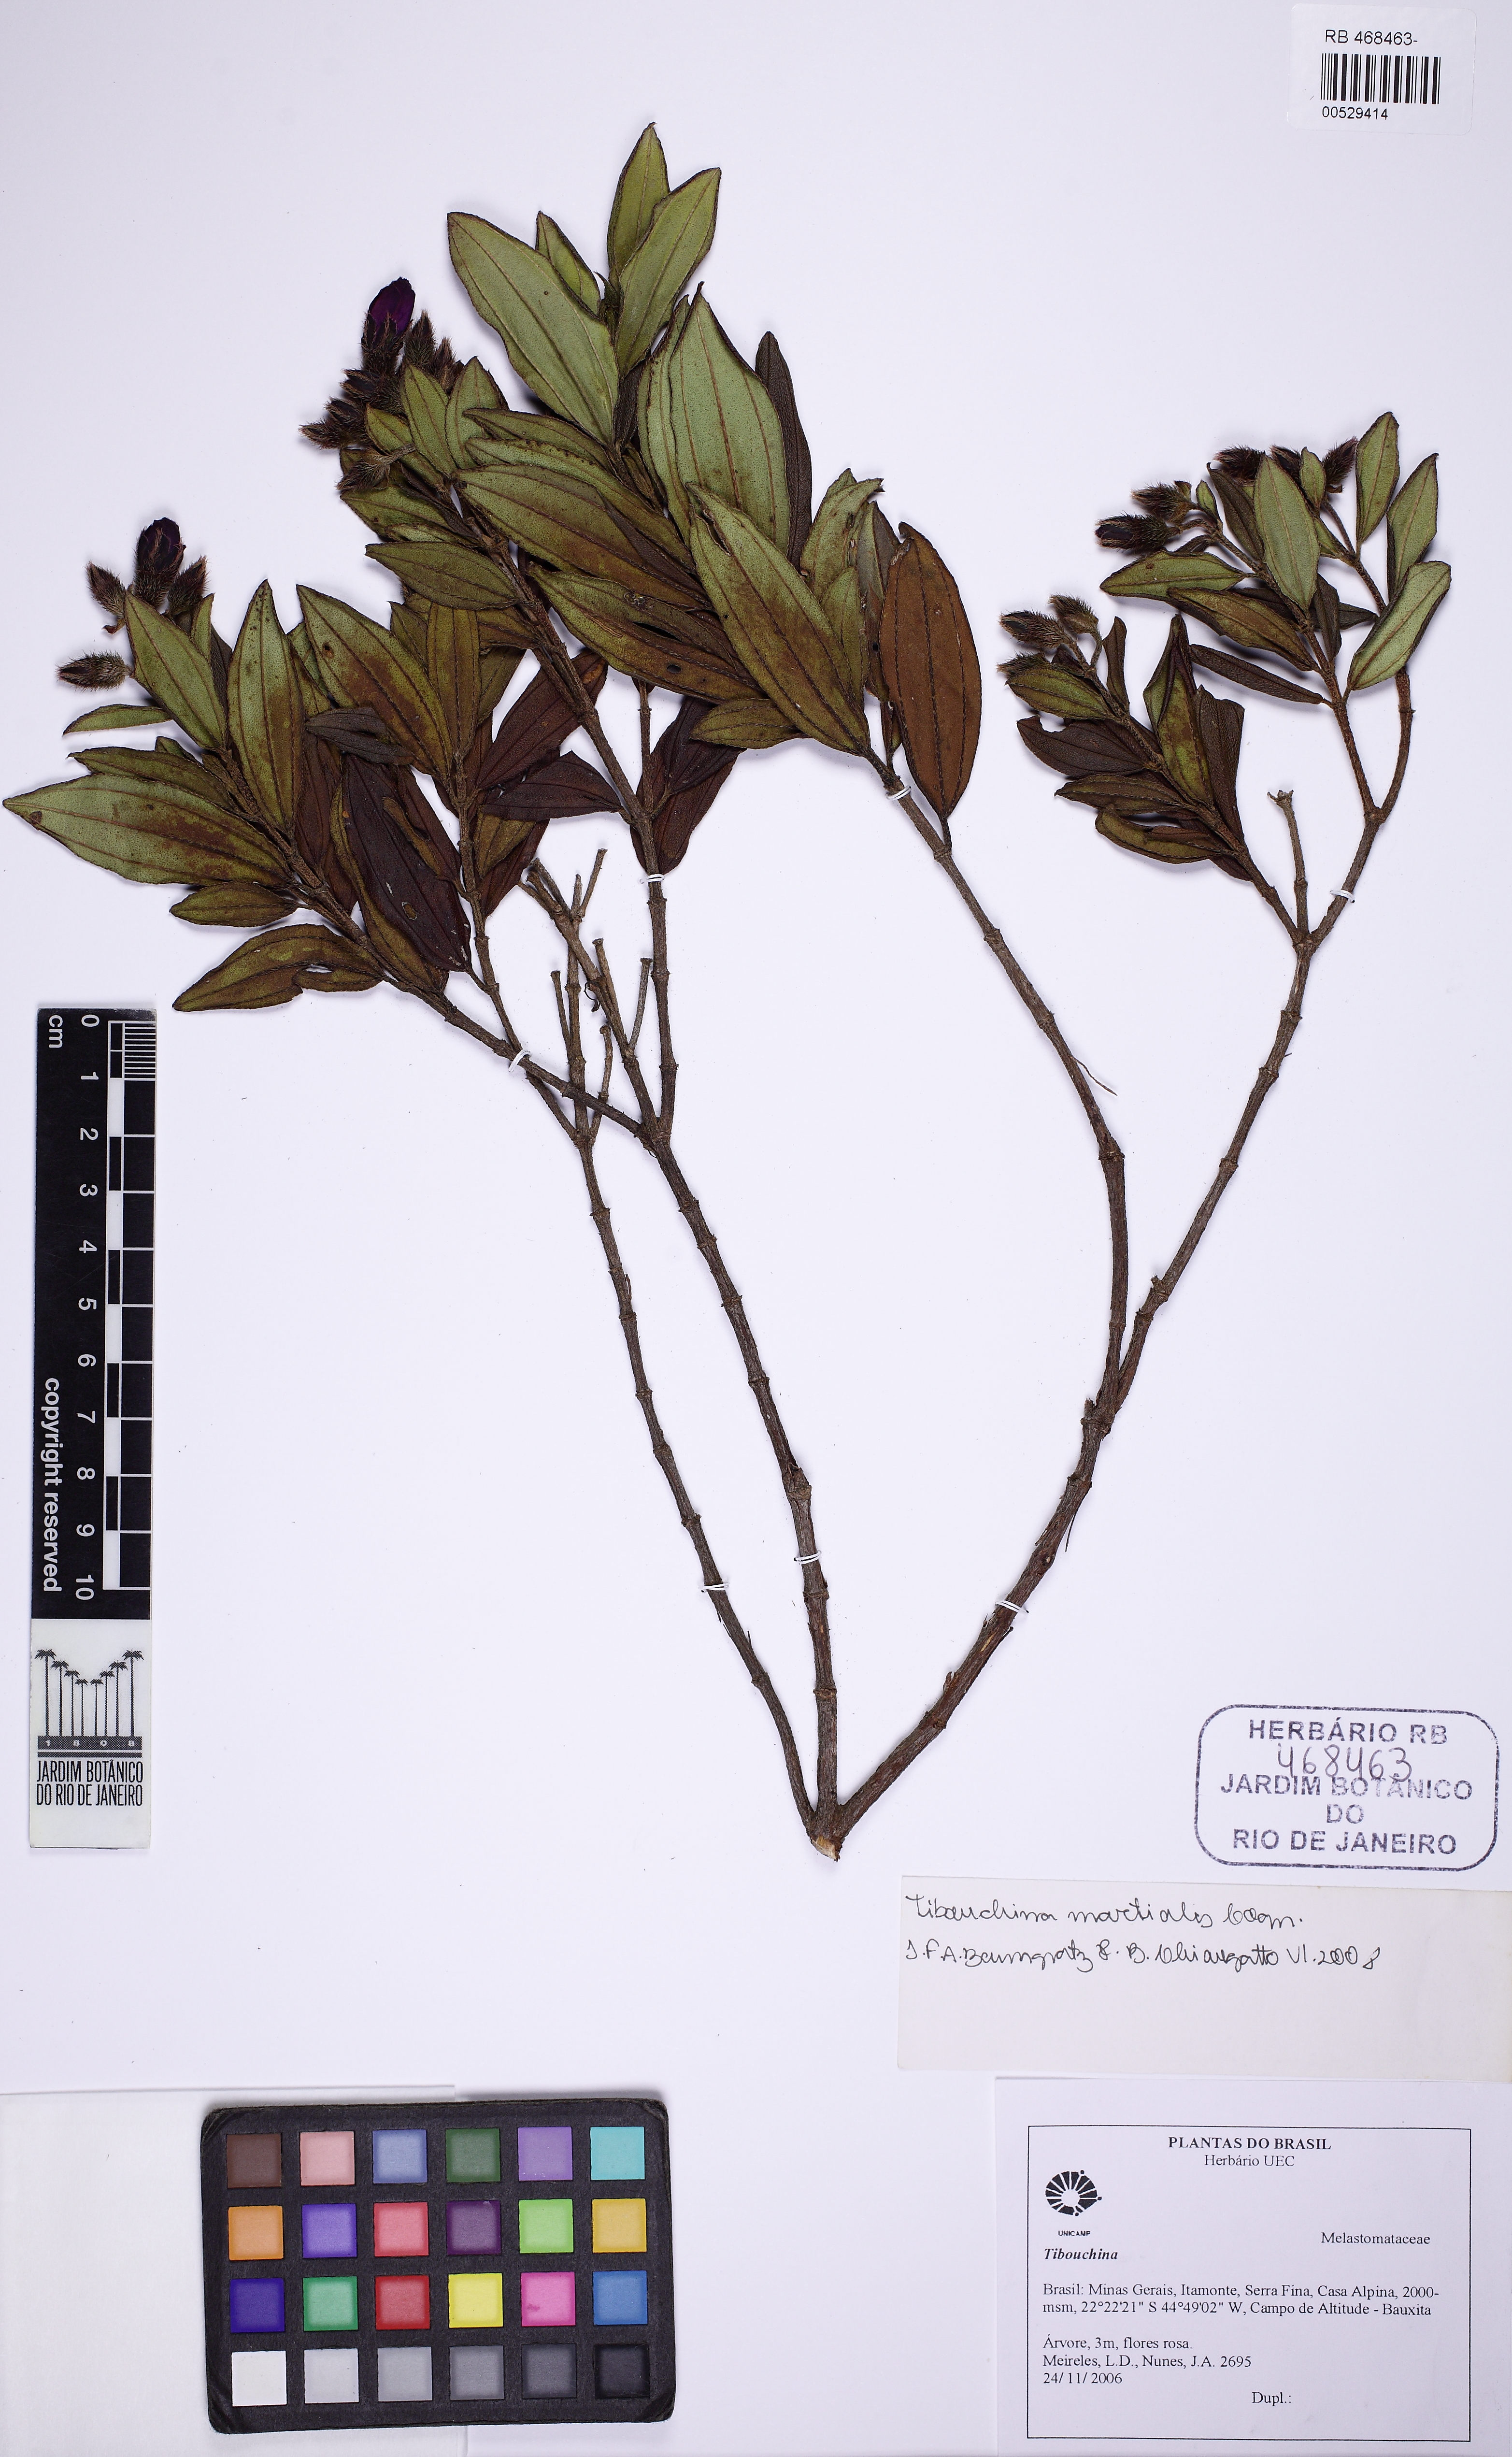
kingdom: Plantae
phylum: Tracheophyta
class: Magnoliopsida
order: Myrtales
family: Melastomataceae
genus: Pleroma
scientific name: Pleroma martiale
